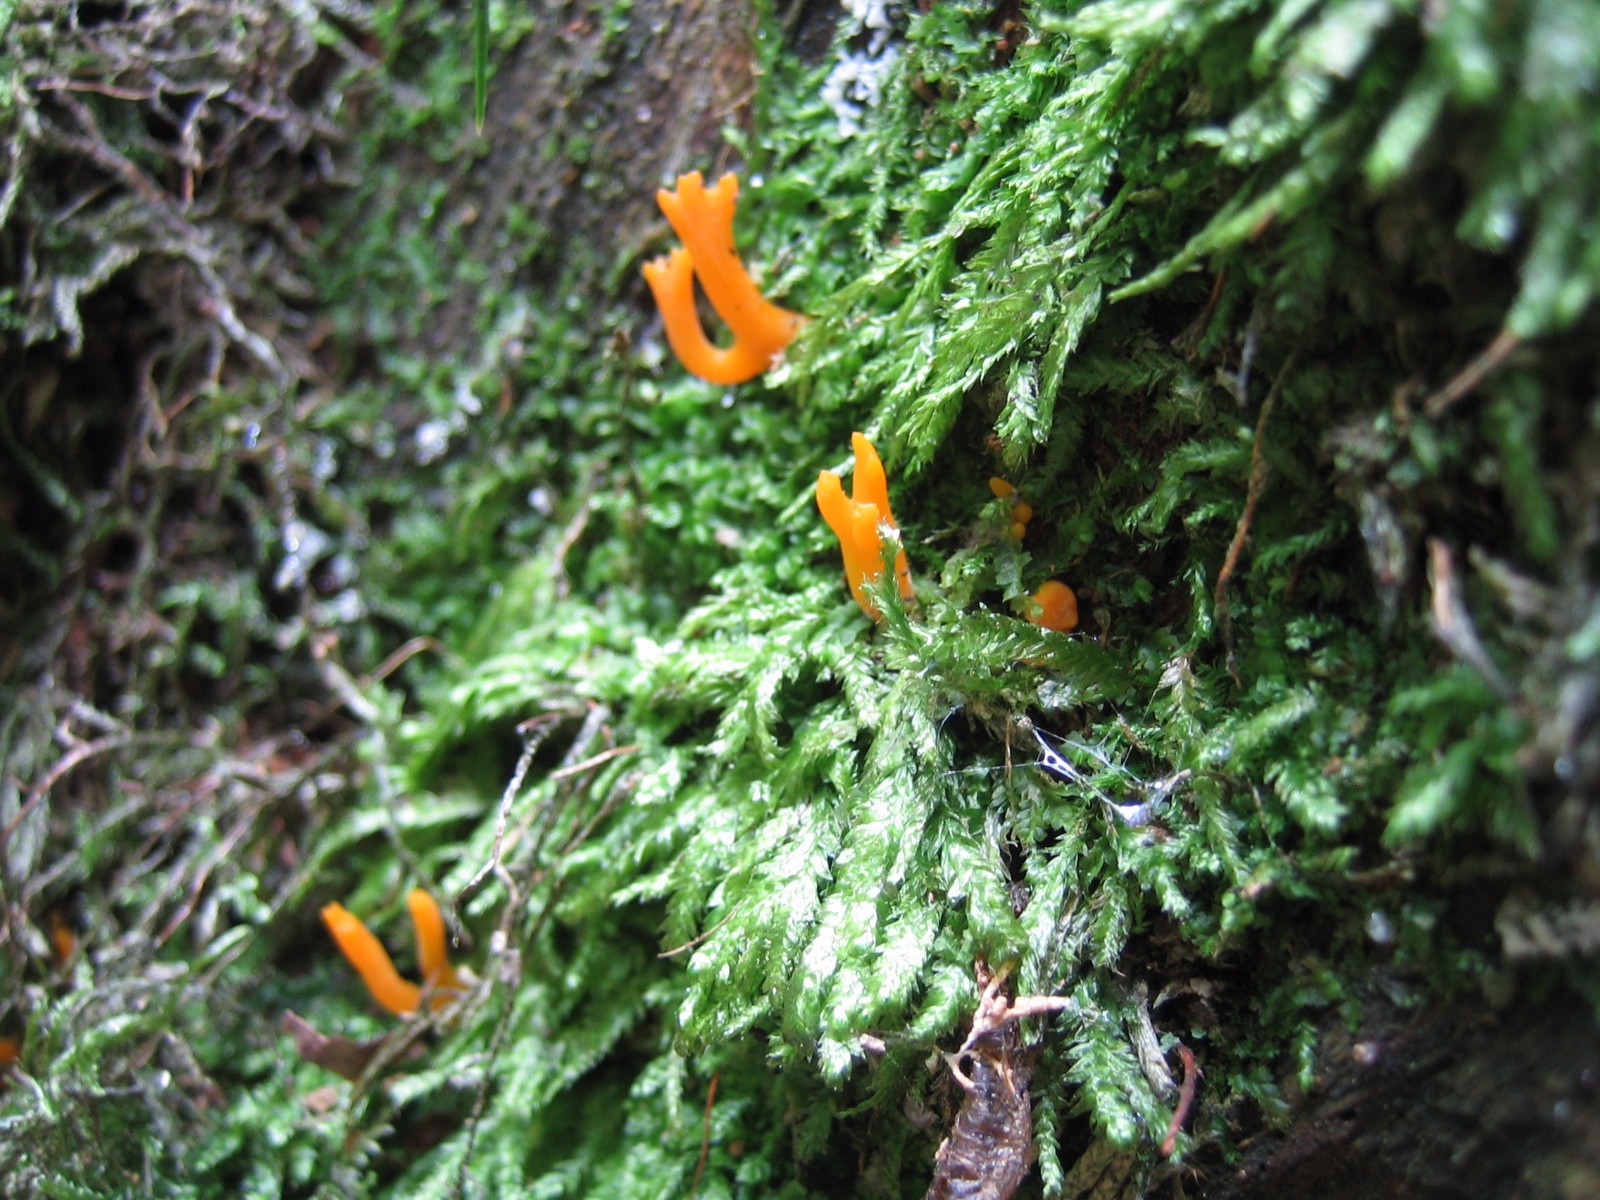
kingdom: Fungi
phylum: Basidiomycota
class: Dacrymycetes
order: Dacrymycetales
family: Dacrymycetaceae
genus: Calocera
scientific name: Calocera viscosa
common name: almindelig guldgaffel
